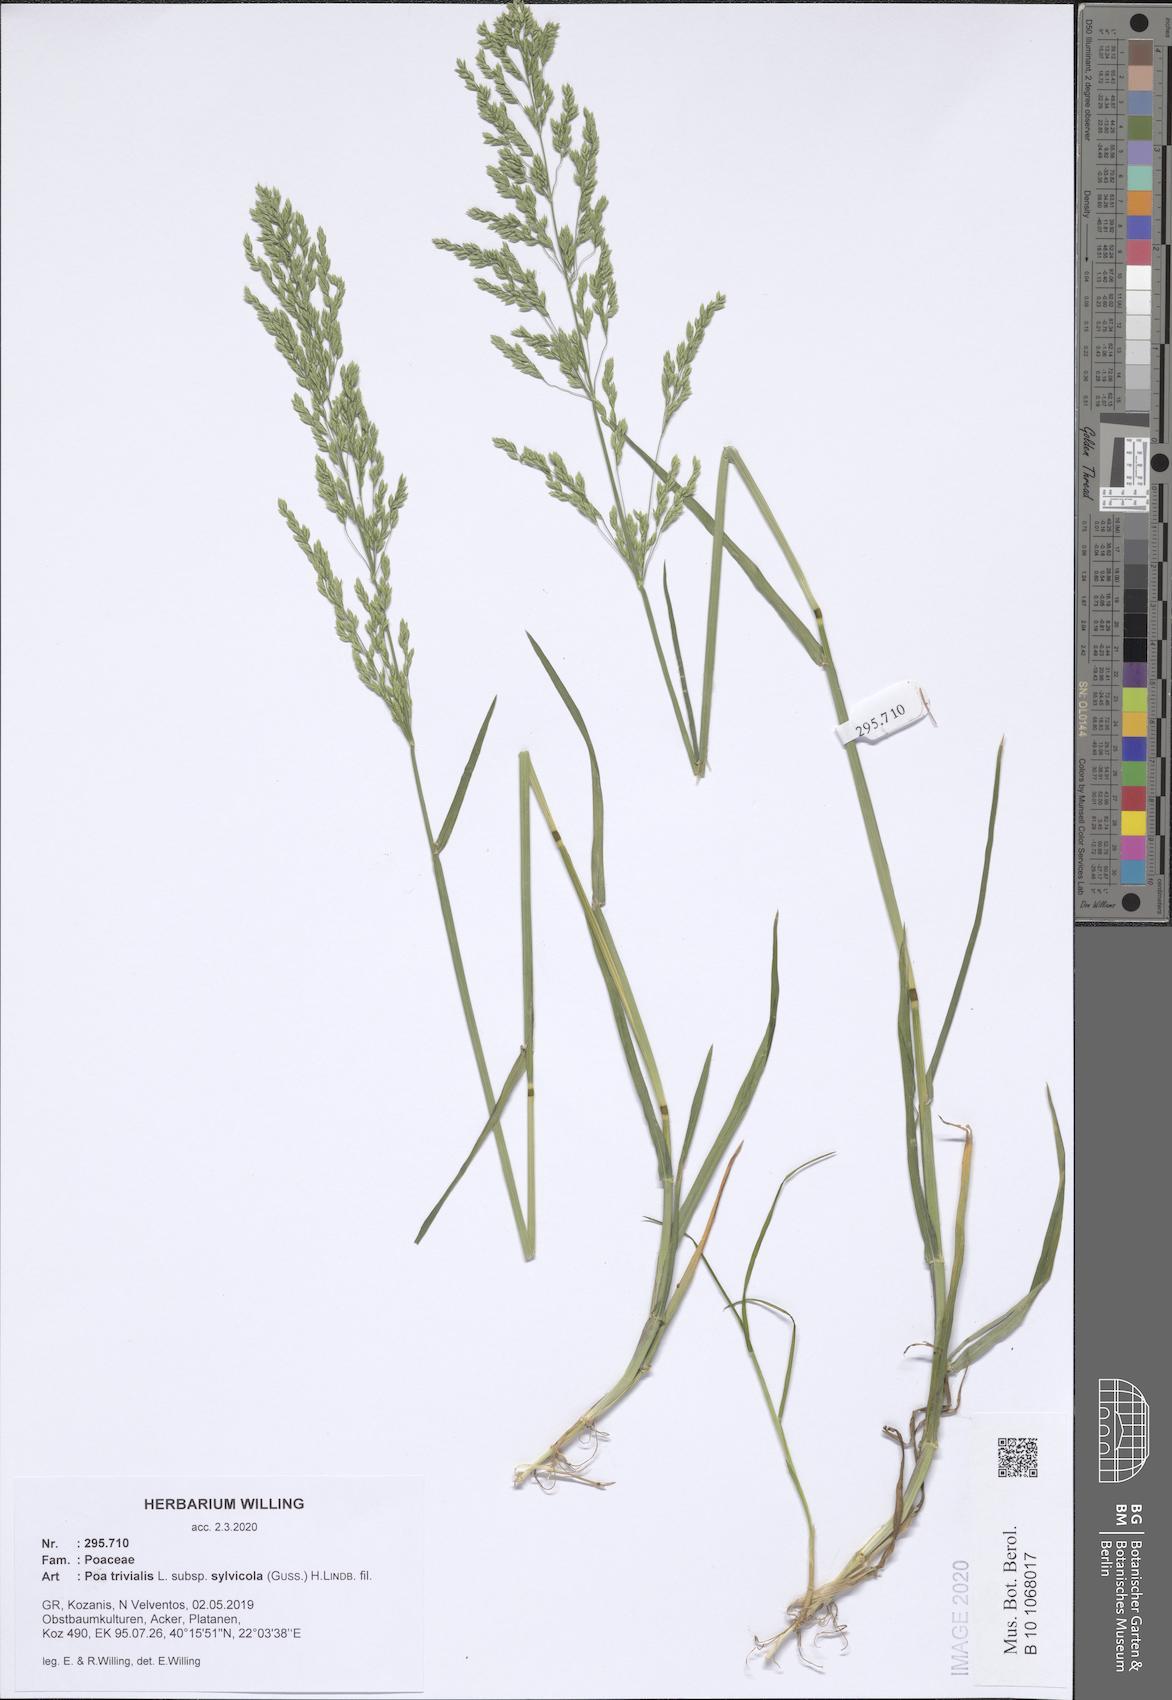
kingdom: Plantae
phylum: Tracheophyta
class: Liliopsida
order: Poales
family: Poaceae
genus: Poa
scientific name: Poa trivialis
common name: Rough bluegrass
